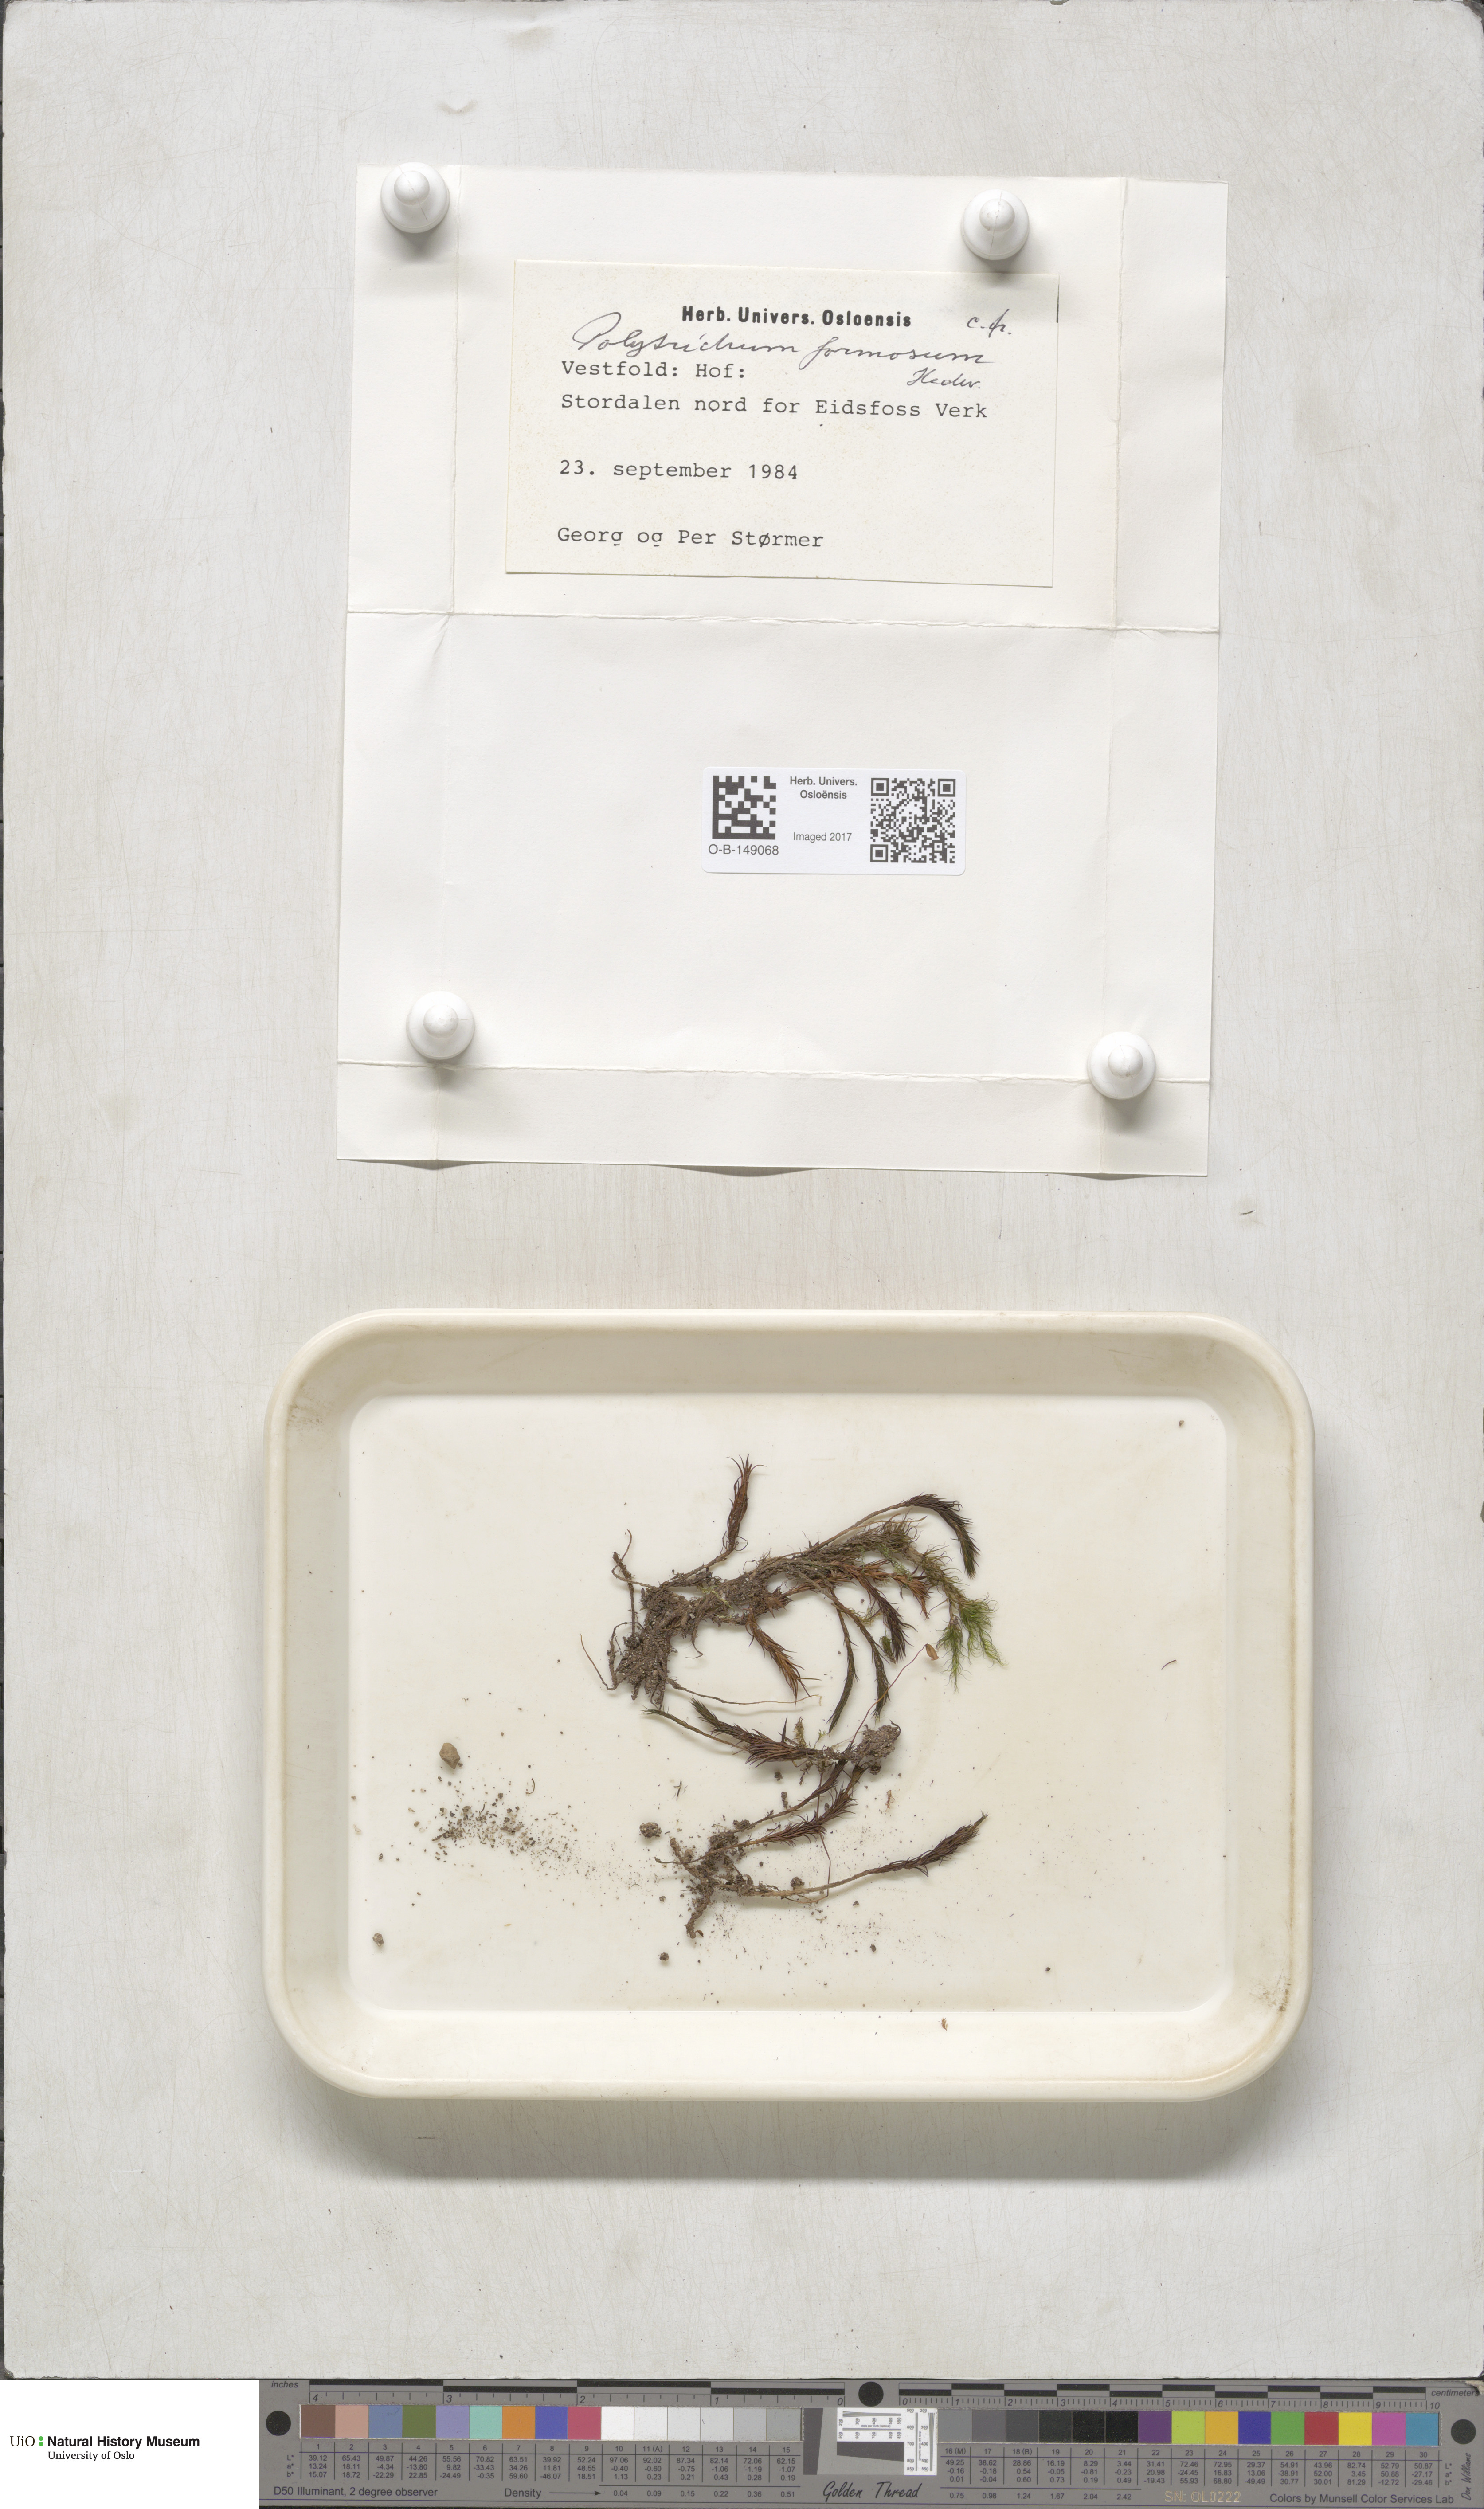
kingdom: Plantae
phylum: Bryophyta
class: Polytrichopsida
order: Polytrichales
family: Polytrichaceae
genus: Polytrichum
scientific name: Polytrichum formosum
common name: Bank haircap moss
